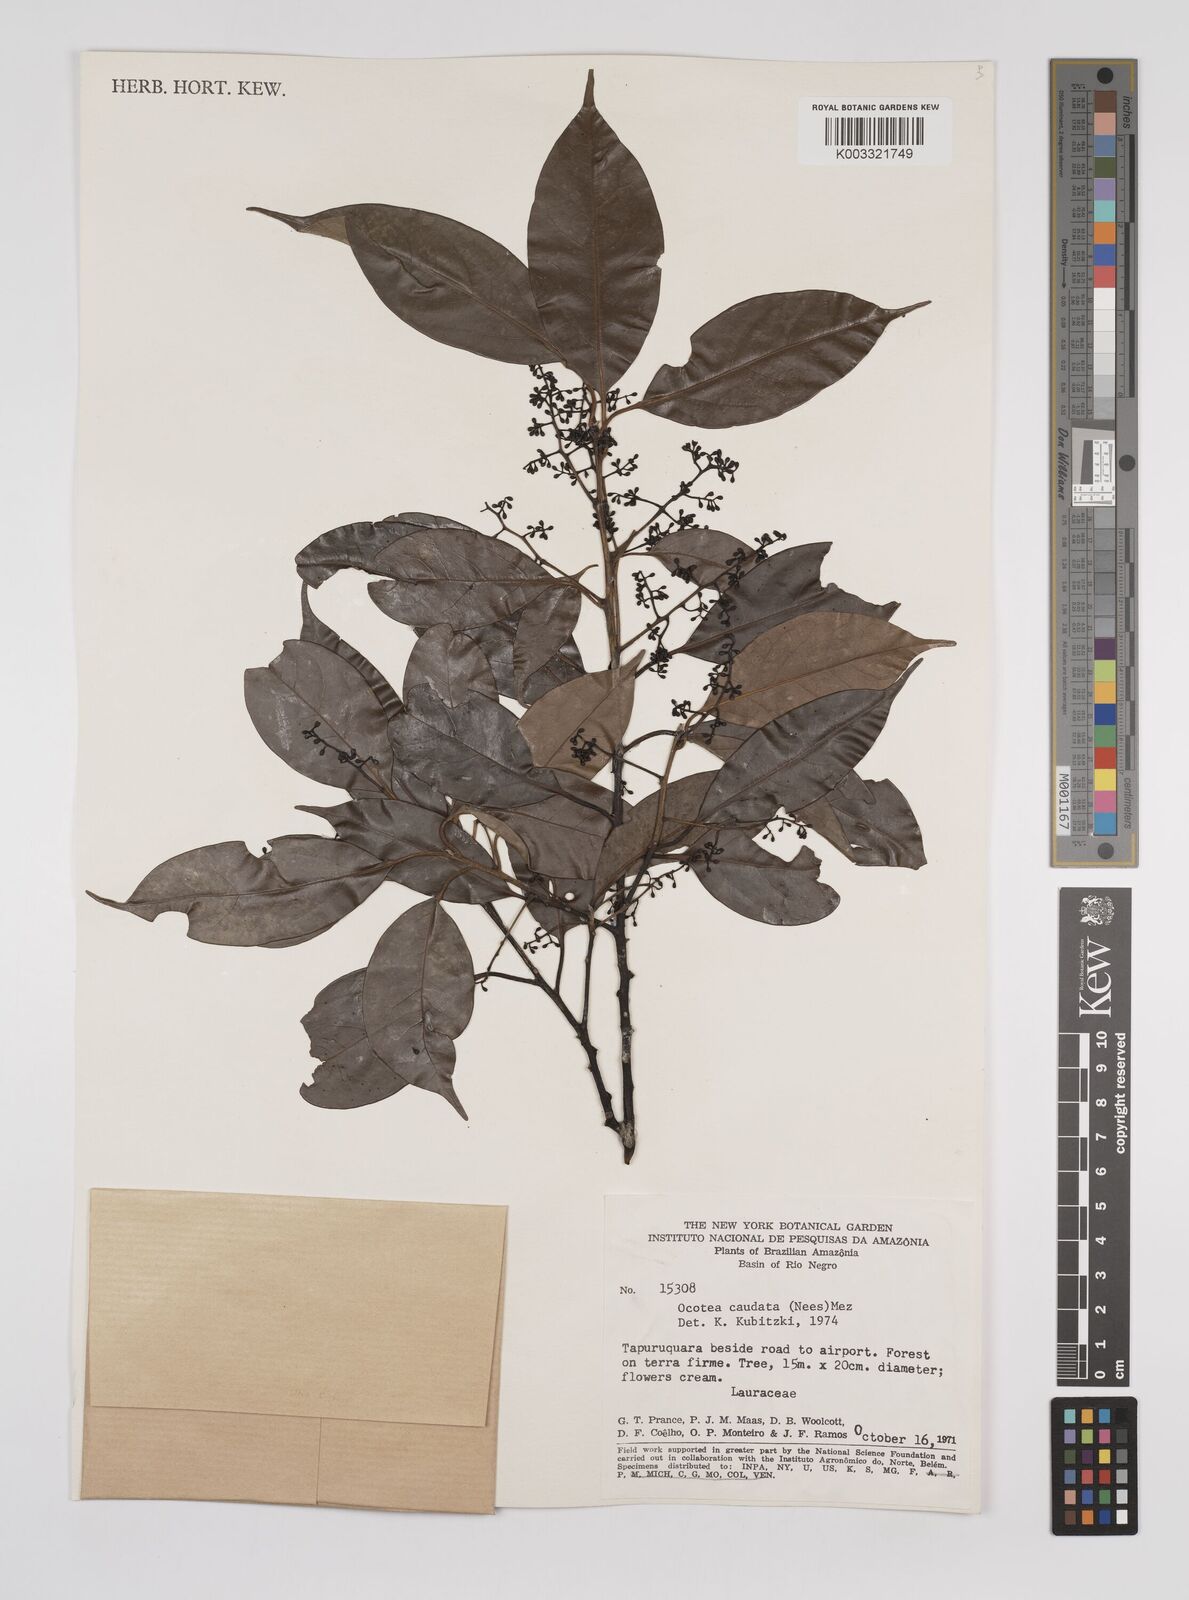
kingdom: Plantae
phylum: Tracheophyta
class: Magnoliopsida
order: Laurales
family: Lauraceae
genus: Ocotea
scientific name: Ocotea leptobotra
